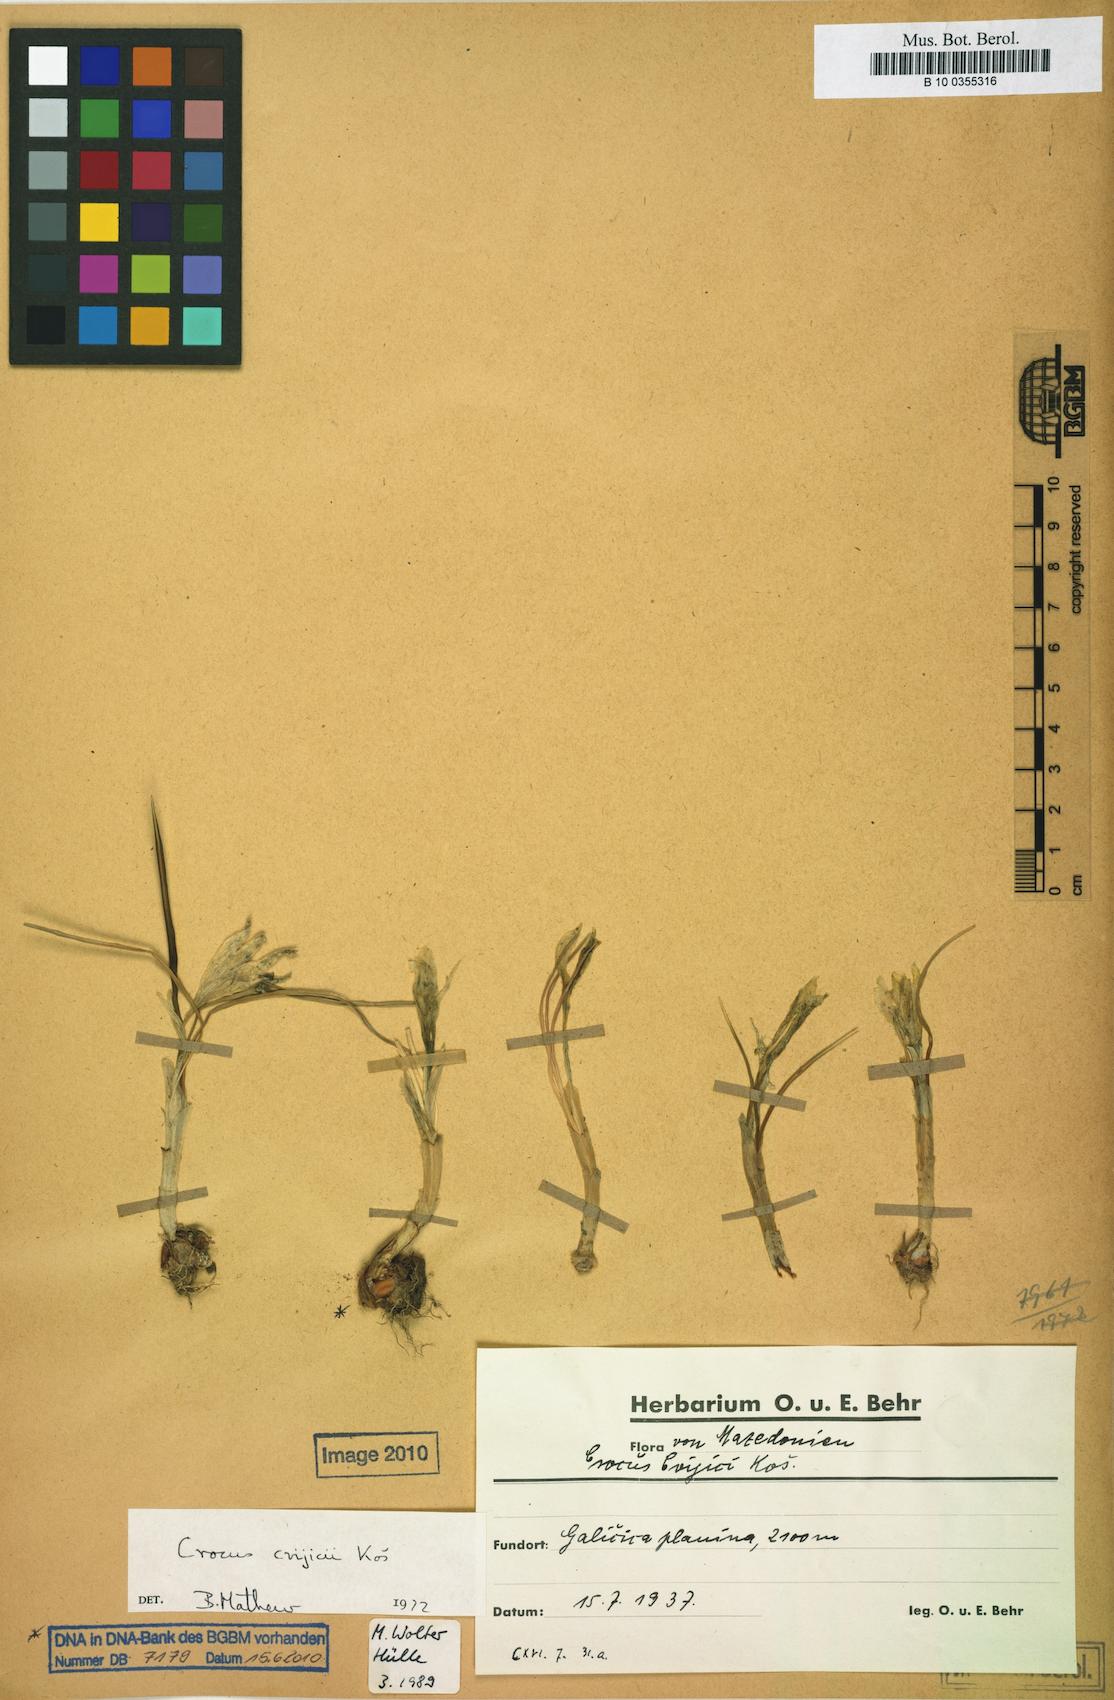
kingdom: Plantae
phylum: Tracheophyta
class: Liliopsida
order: Asparagales
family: Iridaceae
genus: Crocus
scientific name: Crocus cvijicii
